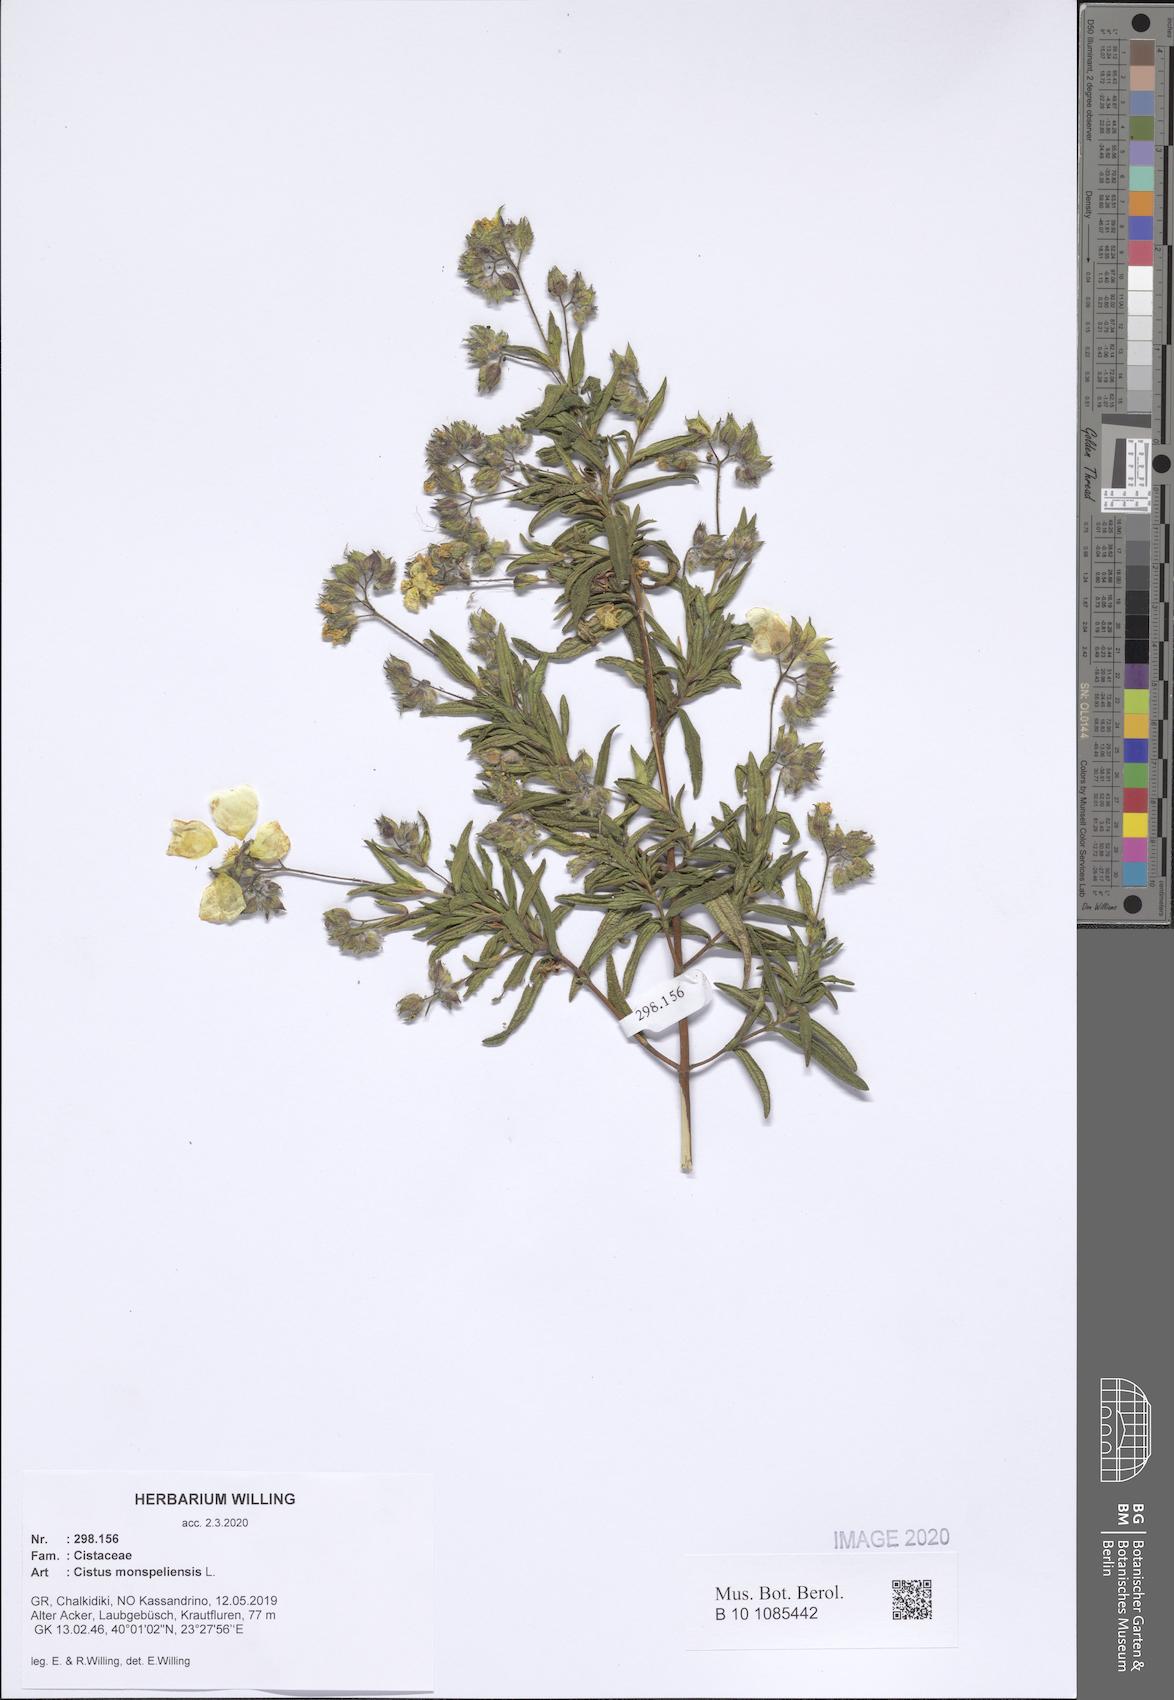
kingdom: Plantae
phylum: Tracheophyta
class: Magnoliopsida
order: Malvales
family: Cistaceae
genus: Cistus
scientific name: Cistus monspeliensis
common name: Montpelier cistus
